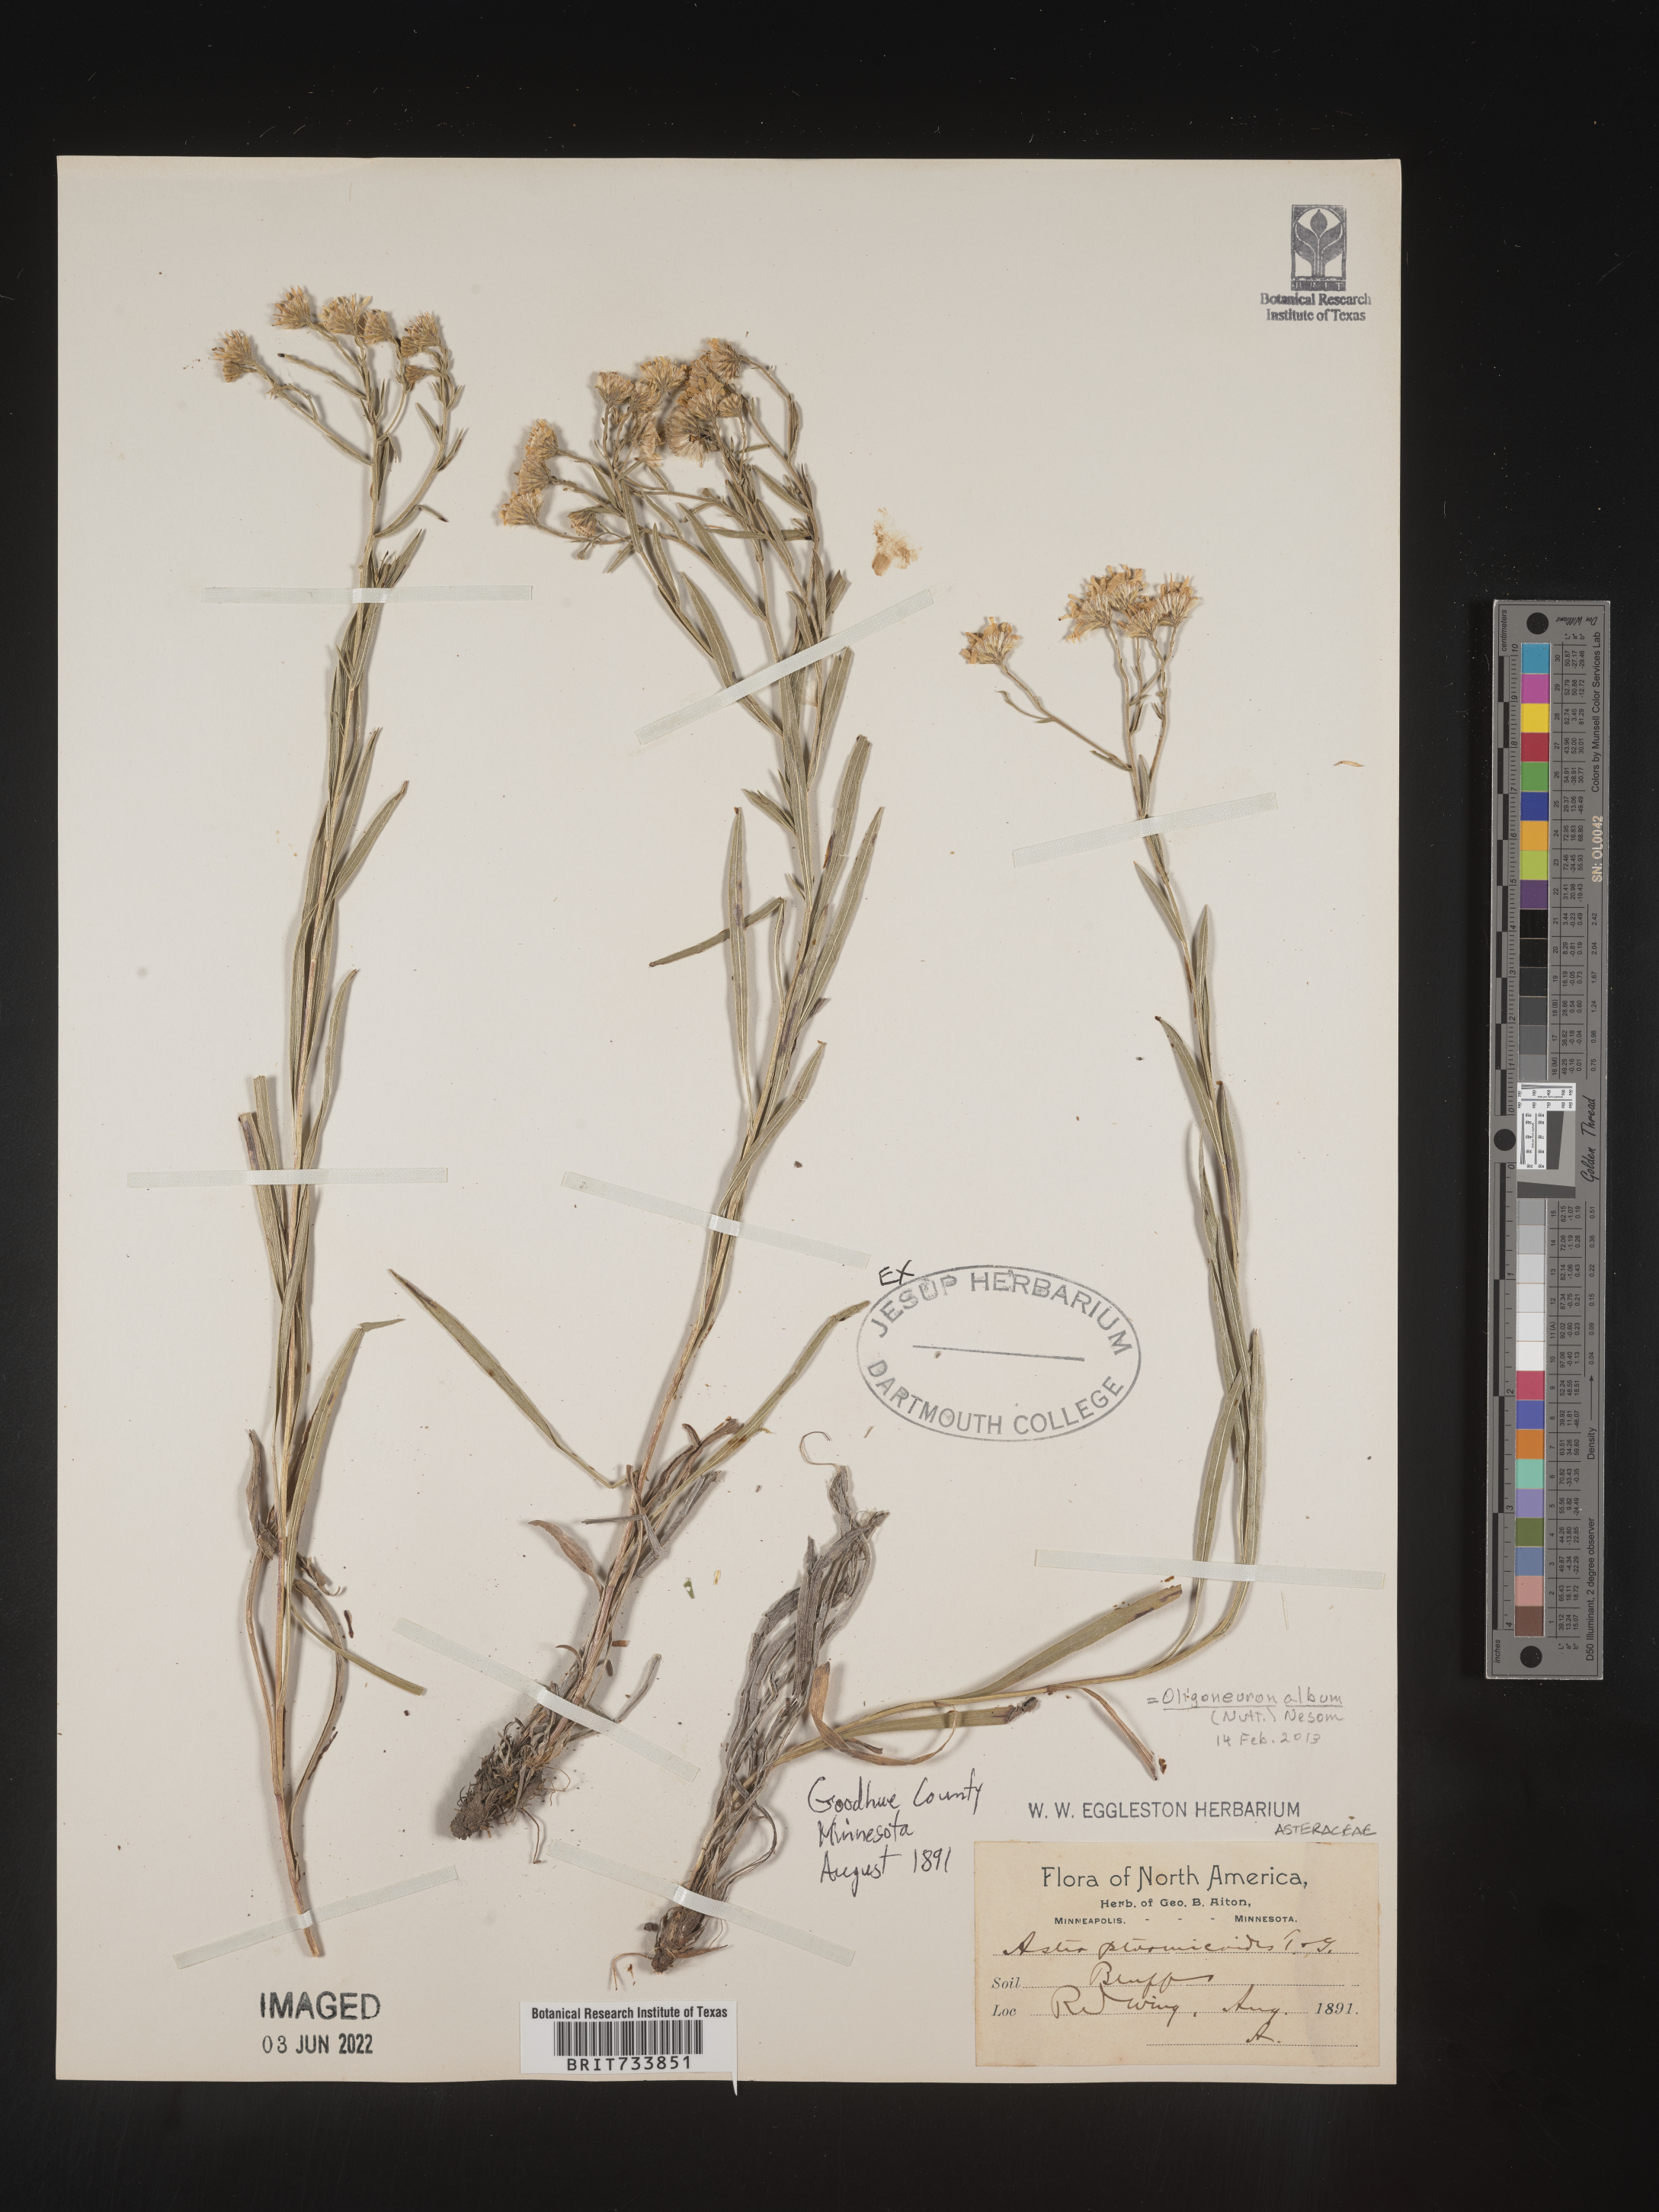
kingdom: Plantae
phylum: Tracheophyta
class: Magnoliopsida
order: Asterales
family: Asteraceae
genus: Solidago
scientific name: Solidago ptarmicoides
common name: White flat-top goldenrod
